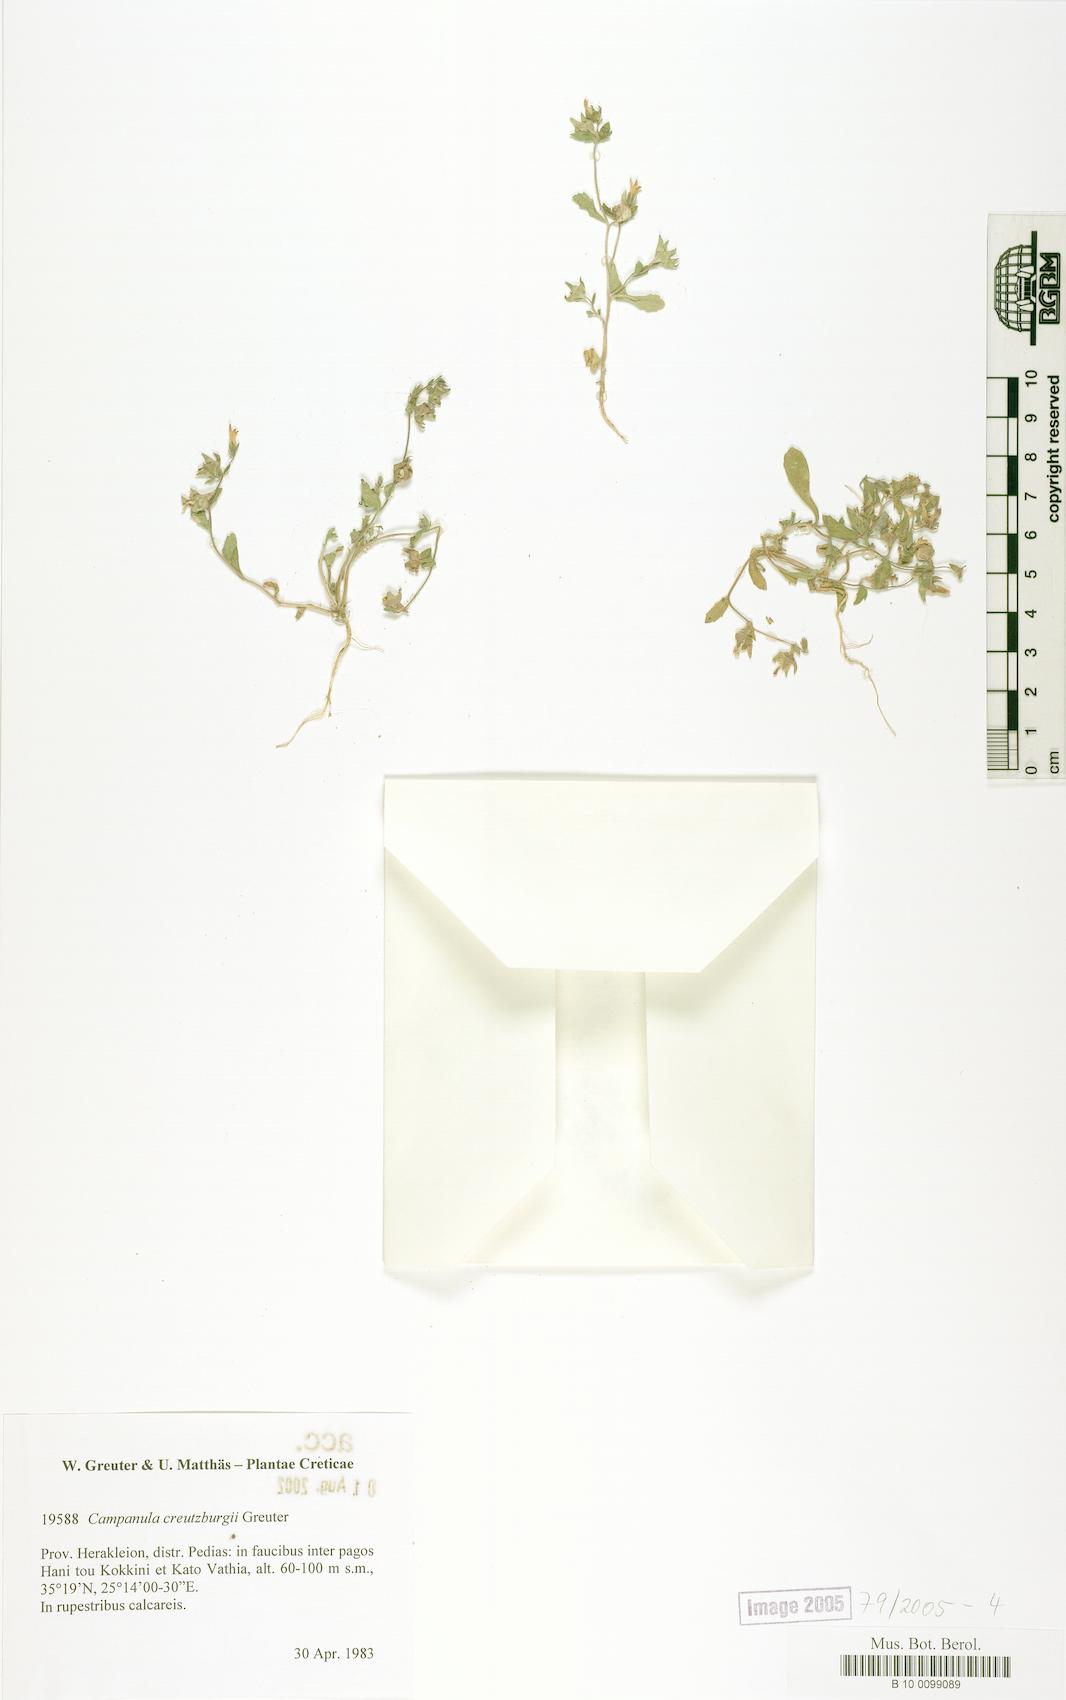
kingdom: Plantae
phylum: Tracheophyta
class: Magnoliopsida
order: Asterales
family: Campanulaceae
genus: Campanula
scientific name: Campanula creutzburgii
